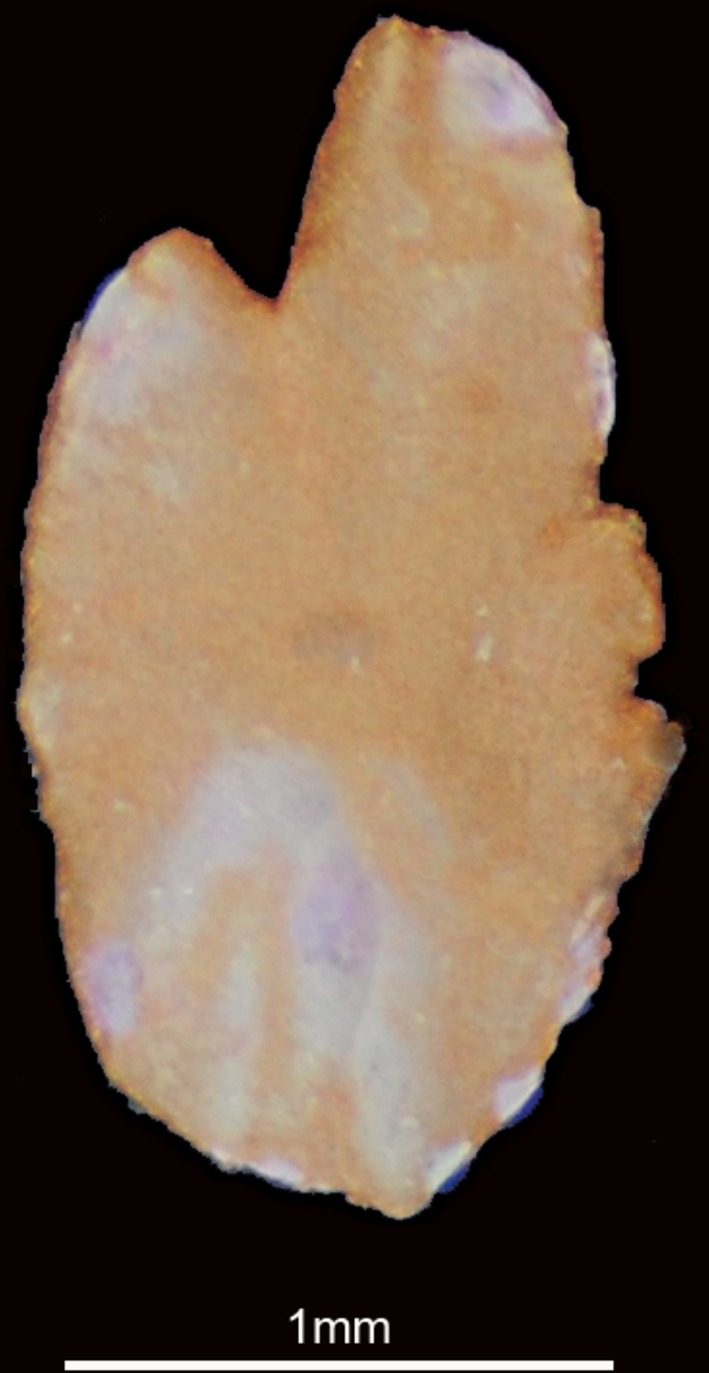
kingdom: Animalia
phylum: Chordata
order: Clupeiformes
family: Clupeidae
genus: Sardinella
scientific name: Sardinella
